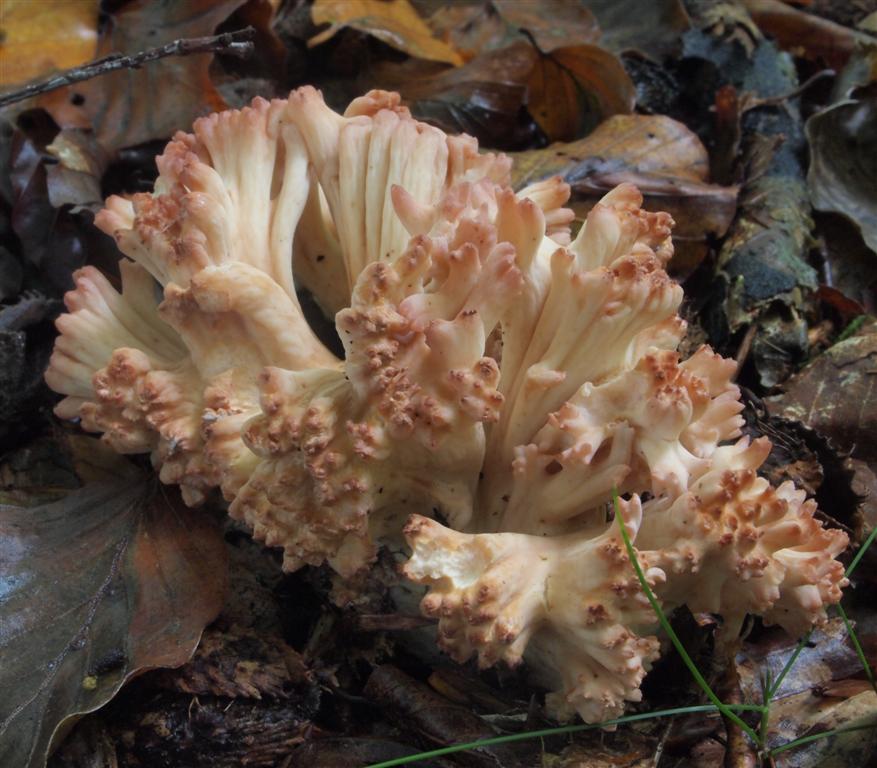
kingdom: Fungi
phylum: Basidiomycota
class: Agaricomycetes
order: Gomphales
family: Gomphaceae
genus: Ramaria
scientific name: Ramaria botrytis
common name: drue-koralsvamp
